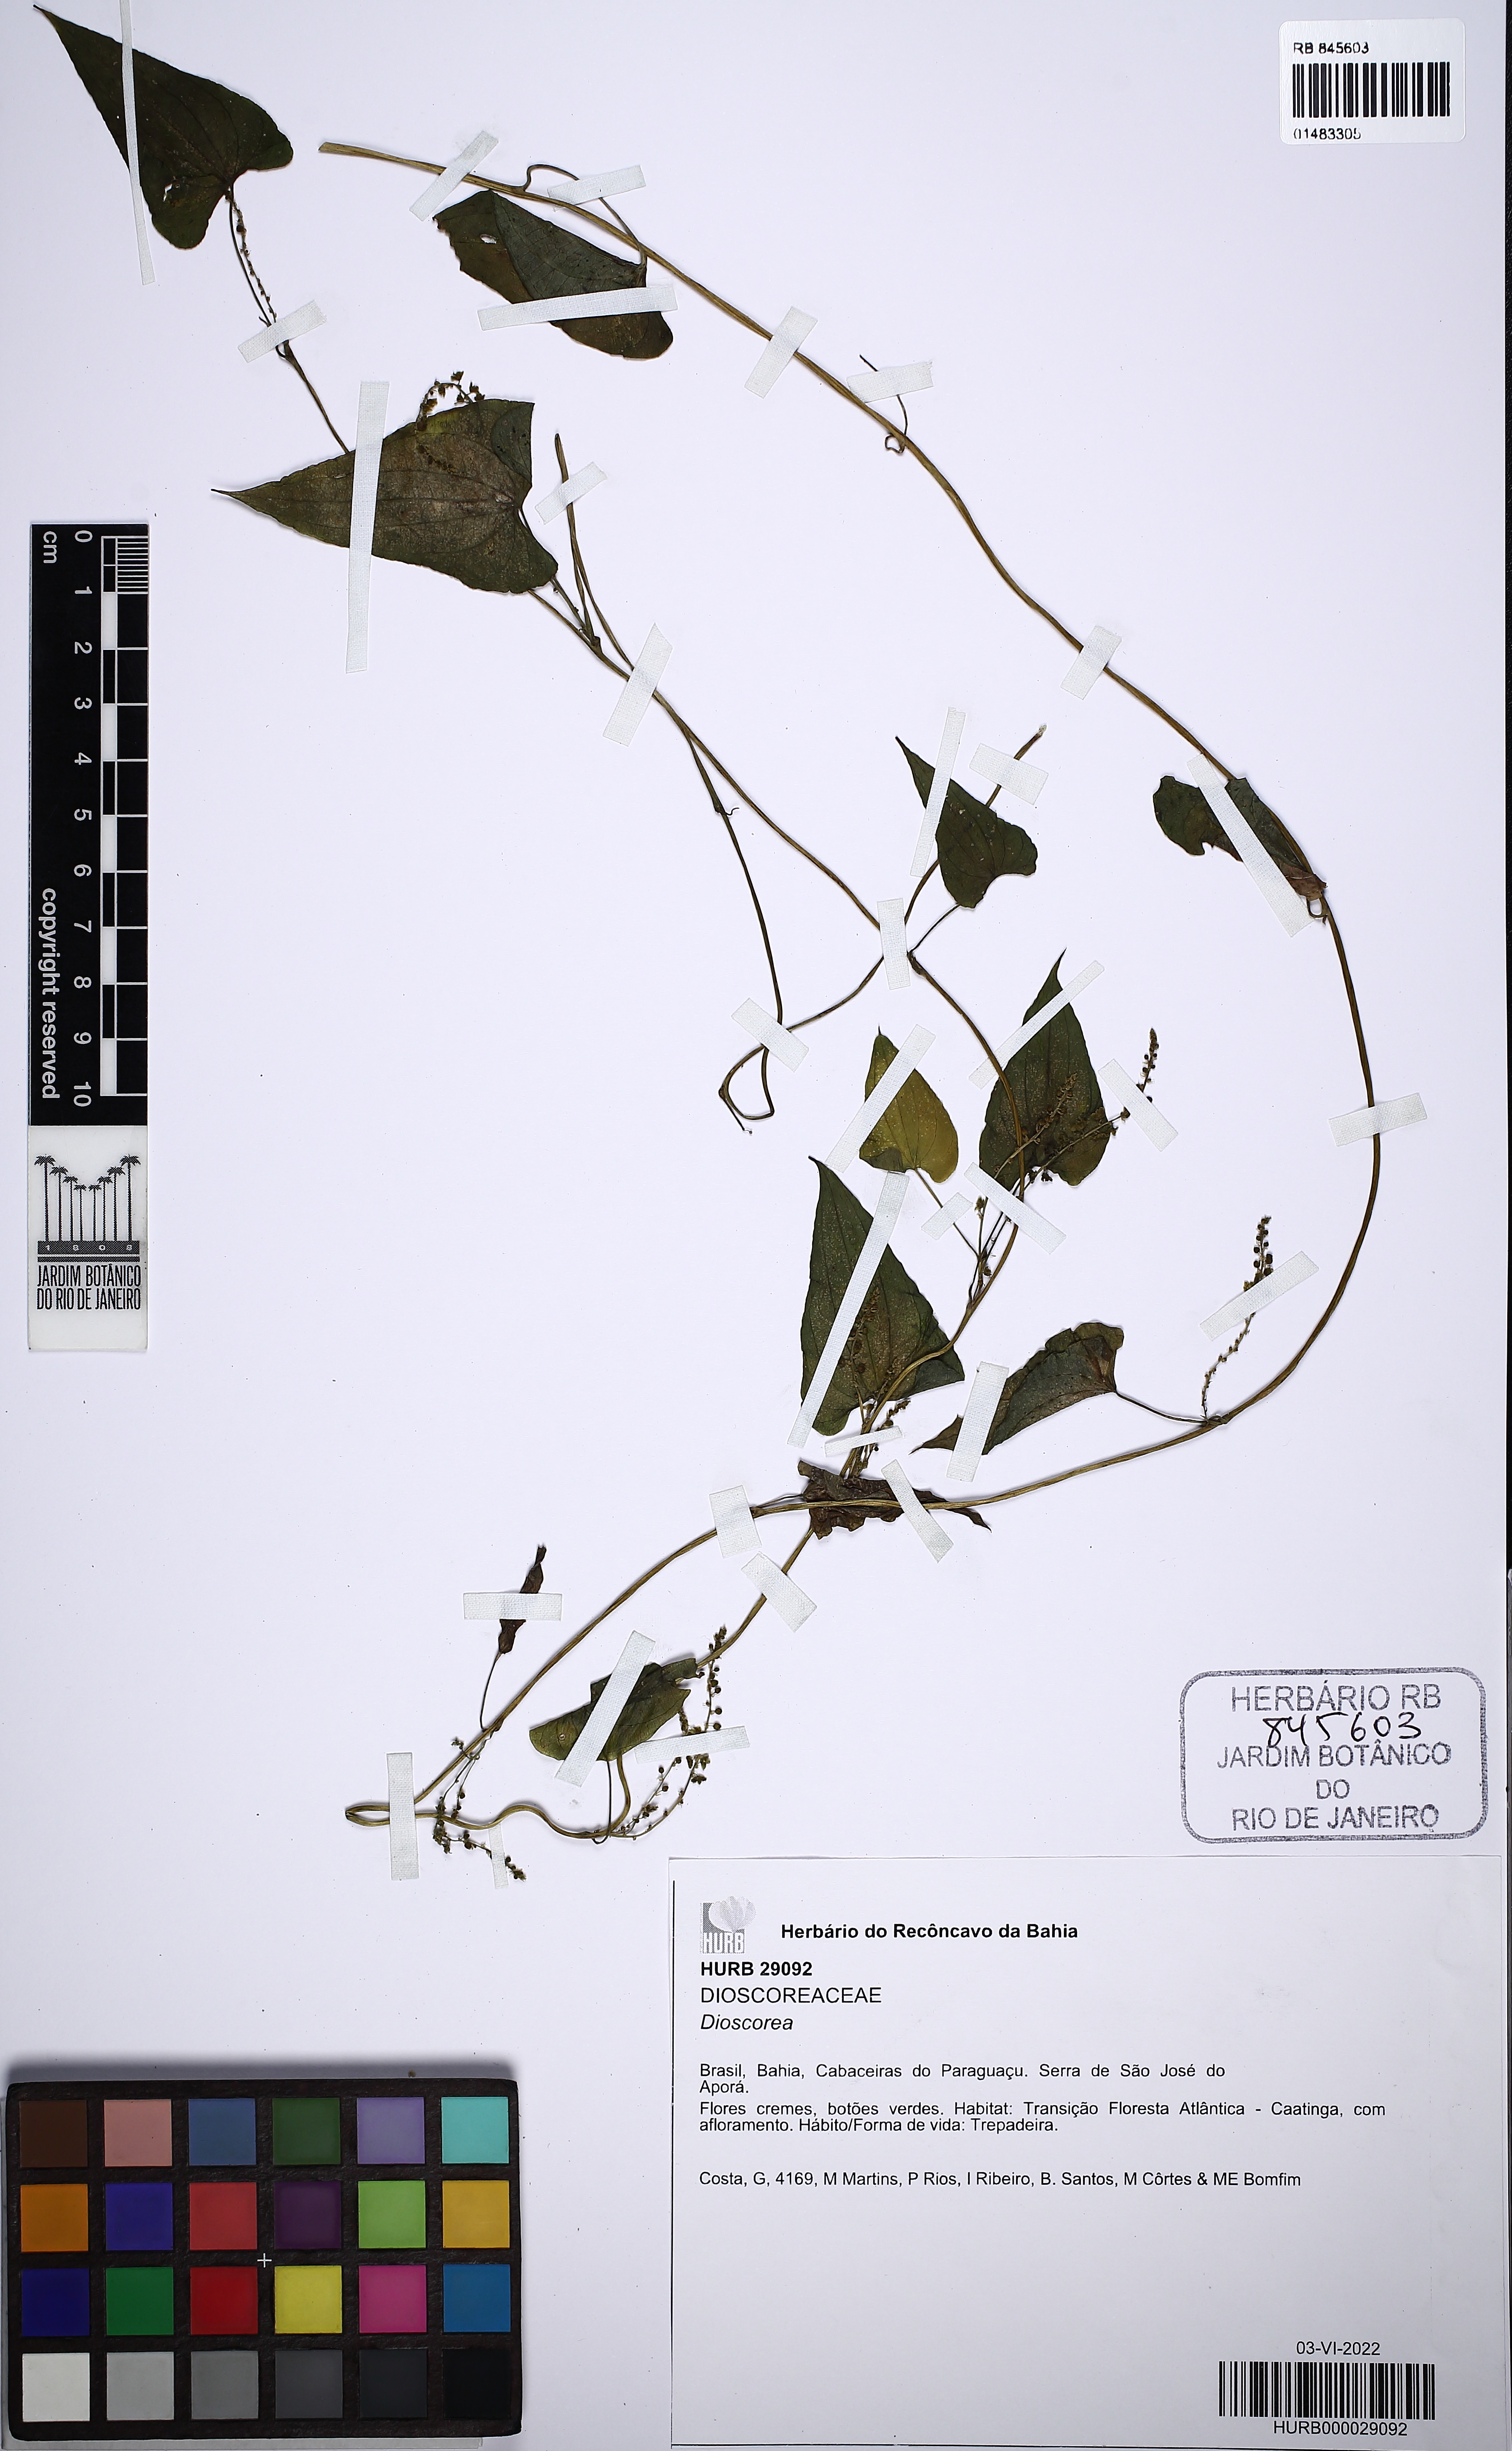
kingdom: Plantae
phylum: Tracheophyta
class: Liliopsida
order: Dioscoreales
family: Dioscoreaceae
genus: Dioscorea
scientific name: Dioscorea
